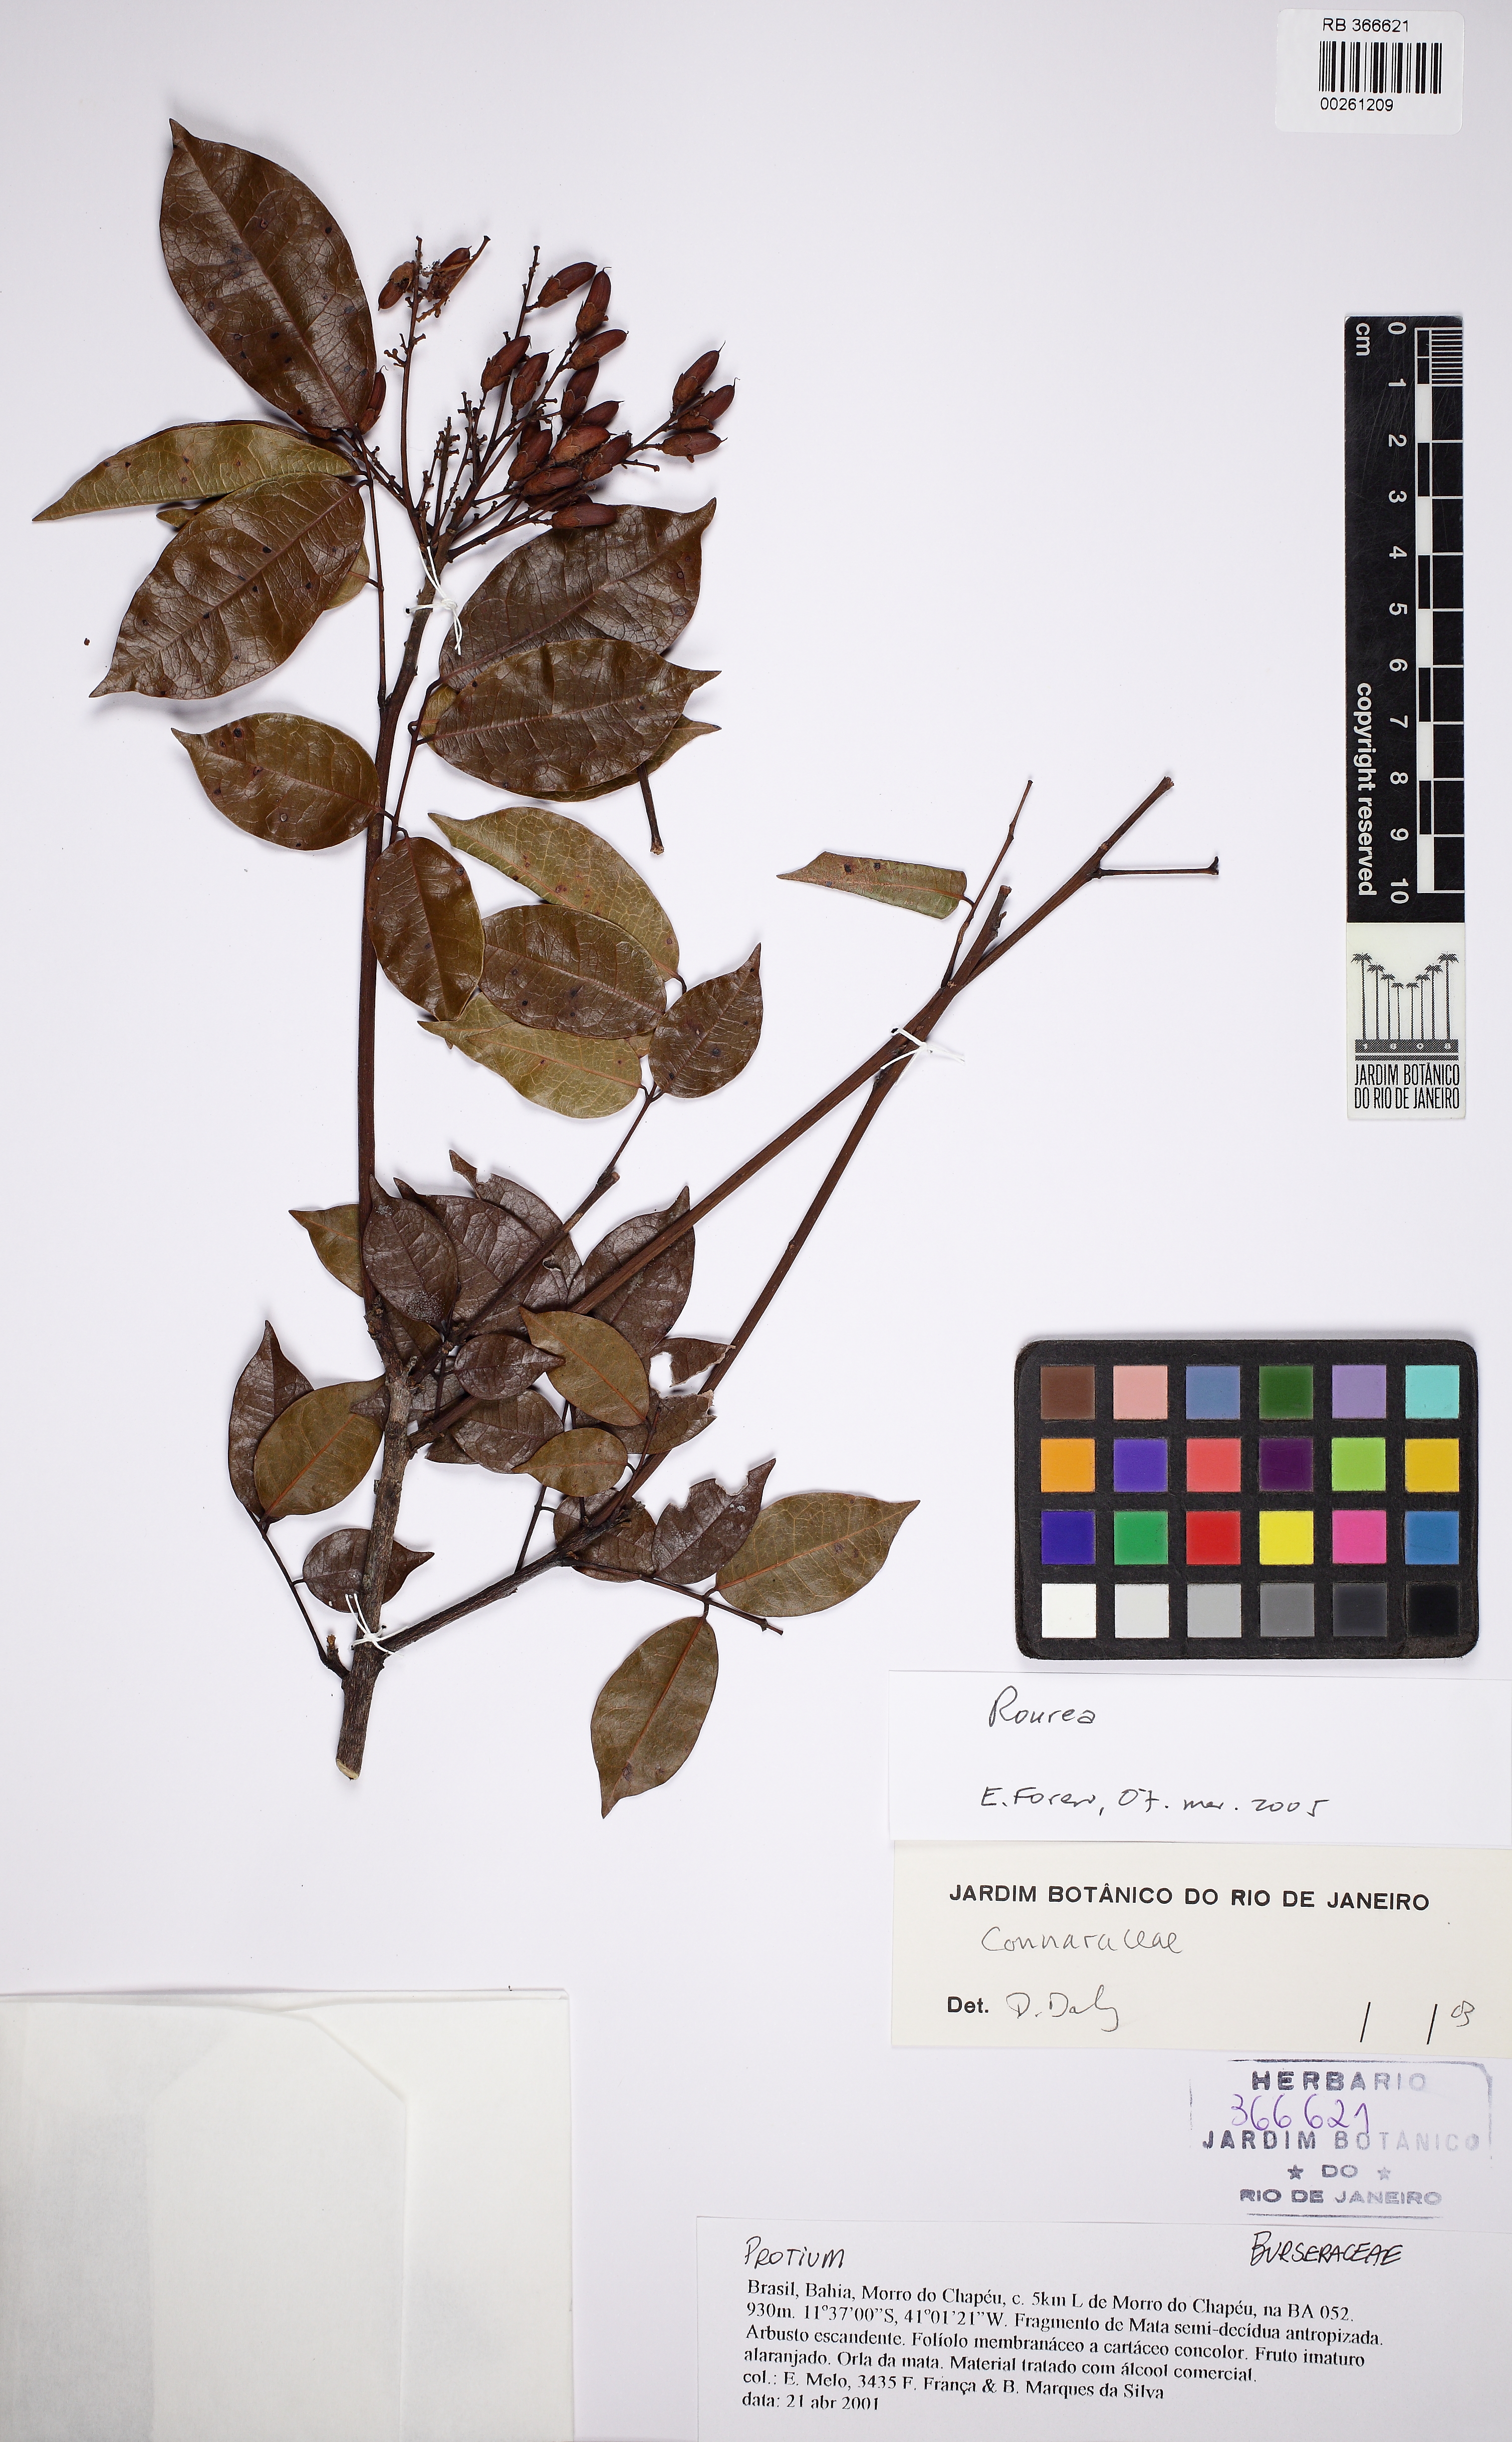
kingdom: Plantae
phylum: Tracheophyta
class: Magnoliopsida
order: Oxalidales
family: Connaraceae
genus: Rourea
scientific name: Rourea
